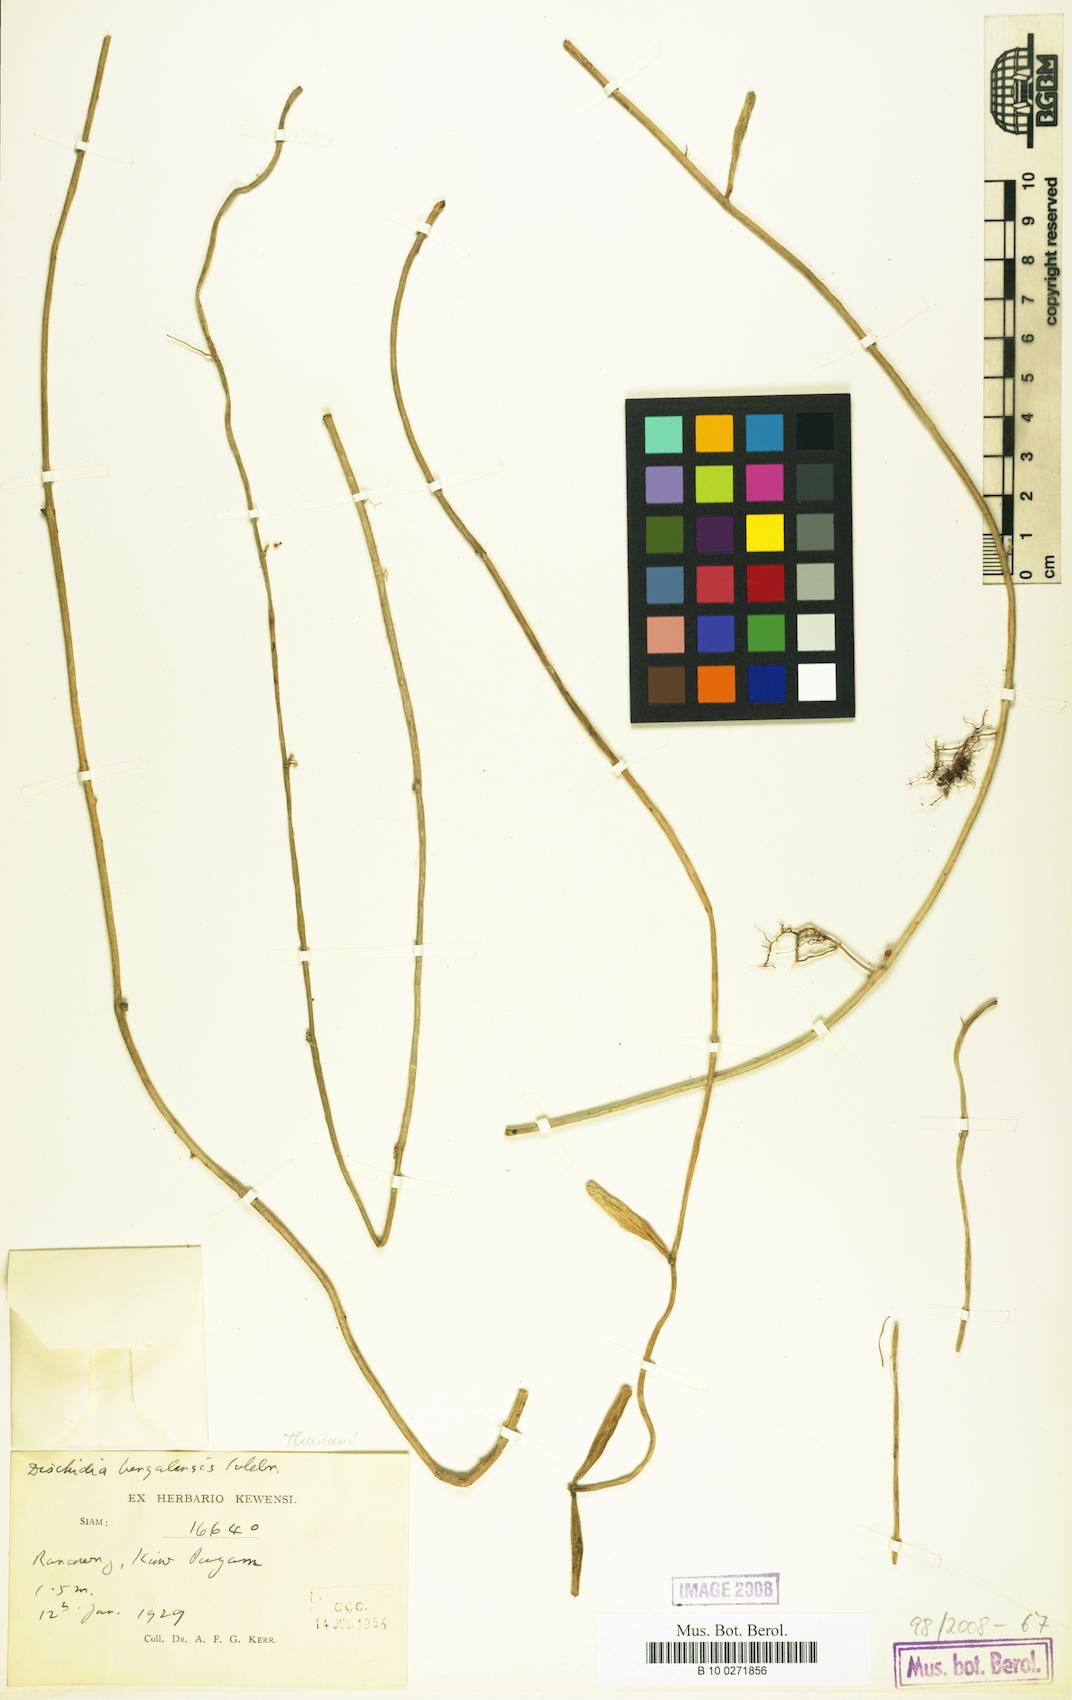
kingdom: Plantae
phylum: Tracheophyta
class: Magnoliopsida
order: Gentianales
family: Apocynaceae
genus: Dischidia
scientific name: Dischidia bengalensis
